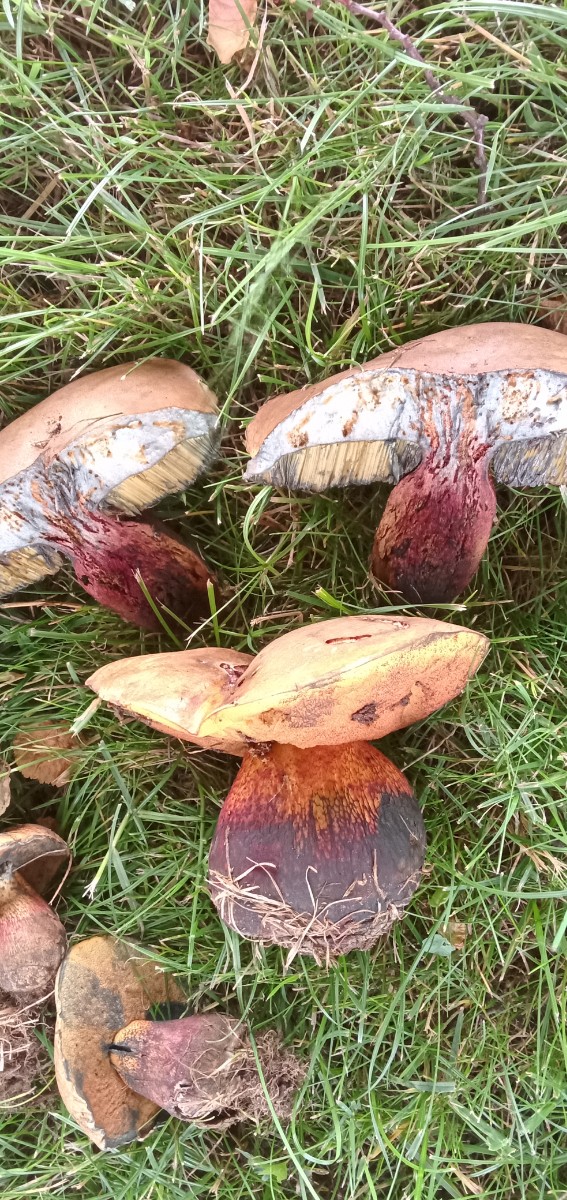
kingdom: Fungi
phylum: Basidiomycota
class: Agaricomycetes
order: Boletales
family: Boletaceae
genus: Suillellus
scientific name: Suillellus luridus
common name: netstokket indigorørhat
